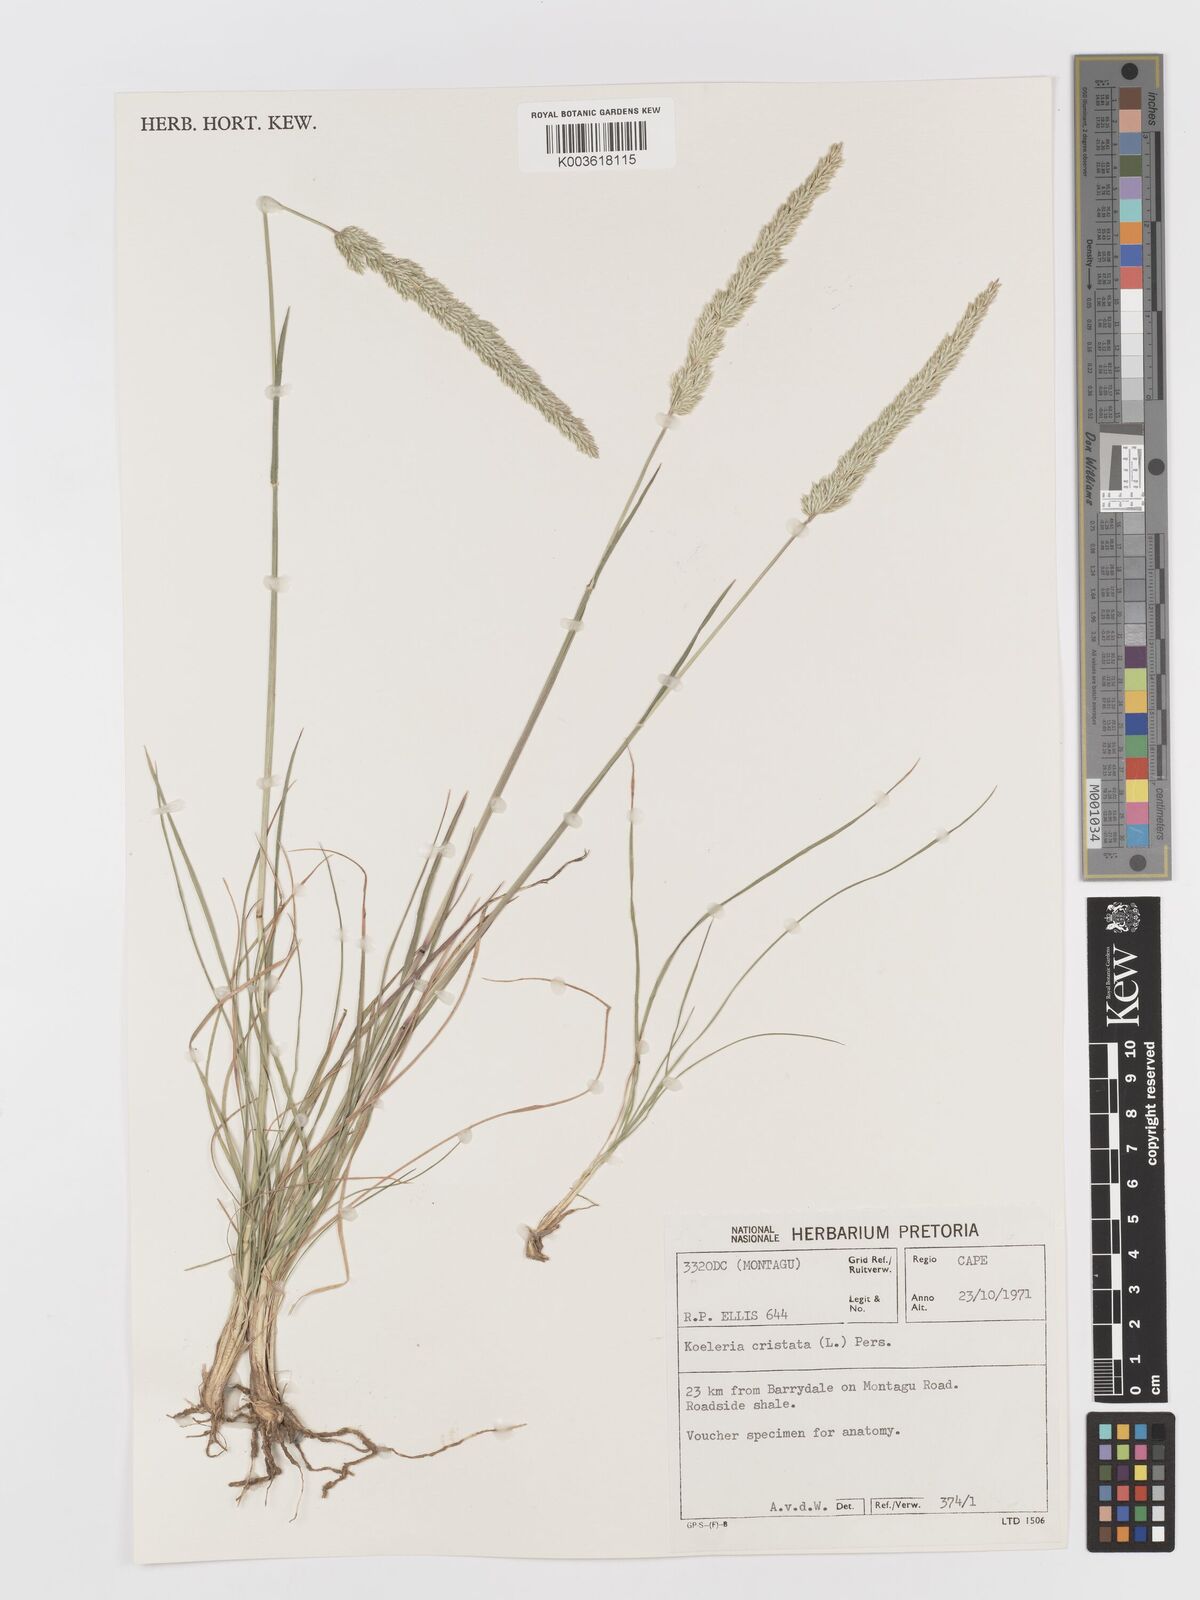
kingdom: Plantae
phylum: Tracheophyta
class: Liliopsida
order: Poales
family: Poaceae
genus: Koeleria
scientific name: Koeleria capensis
